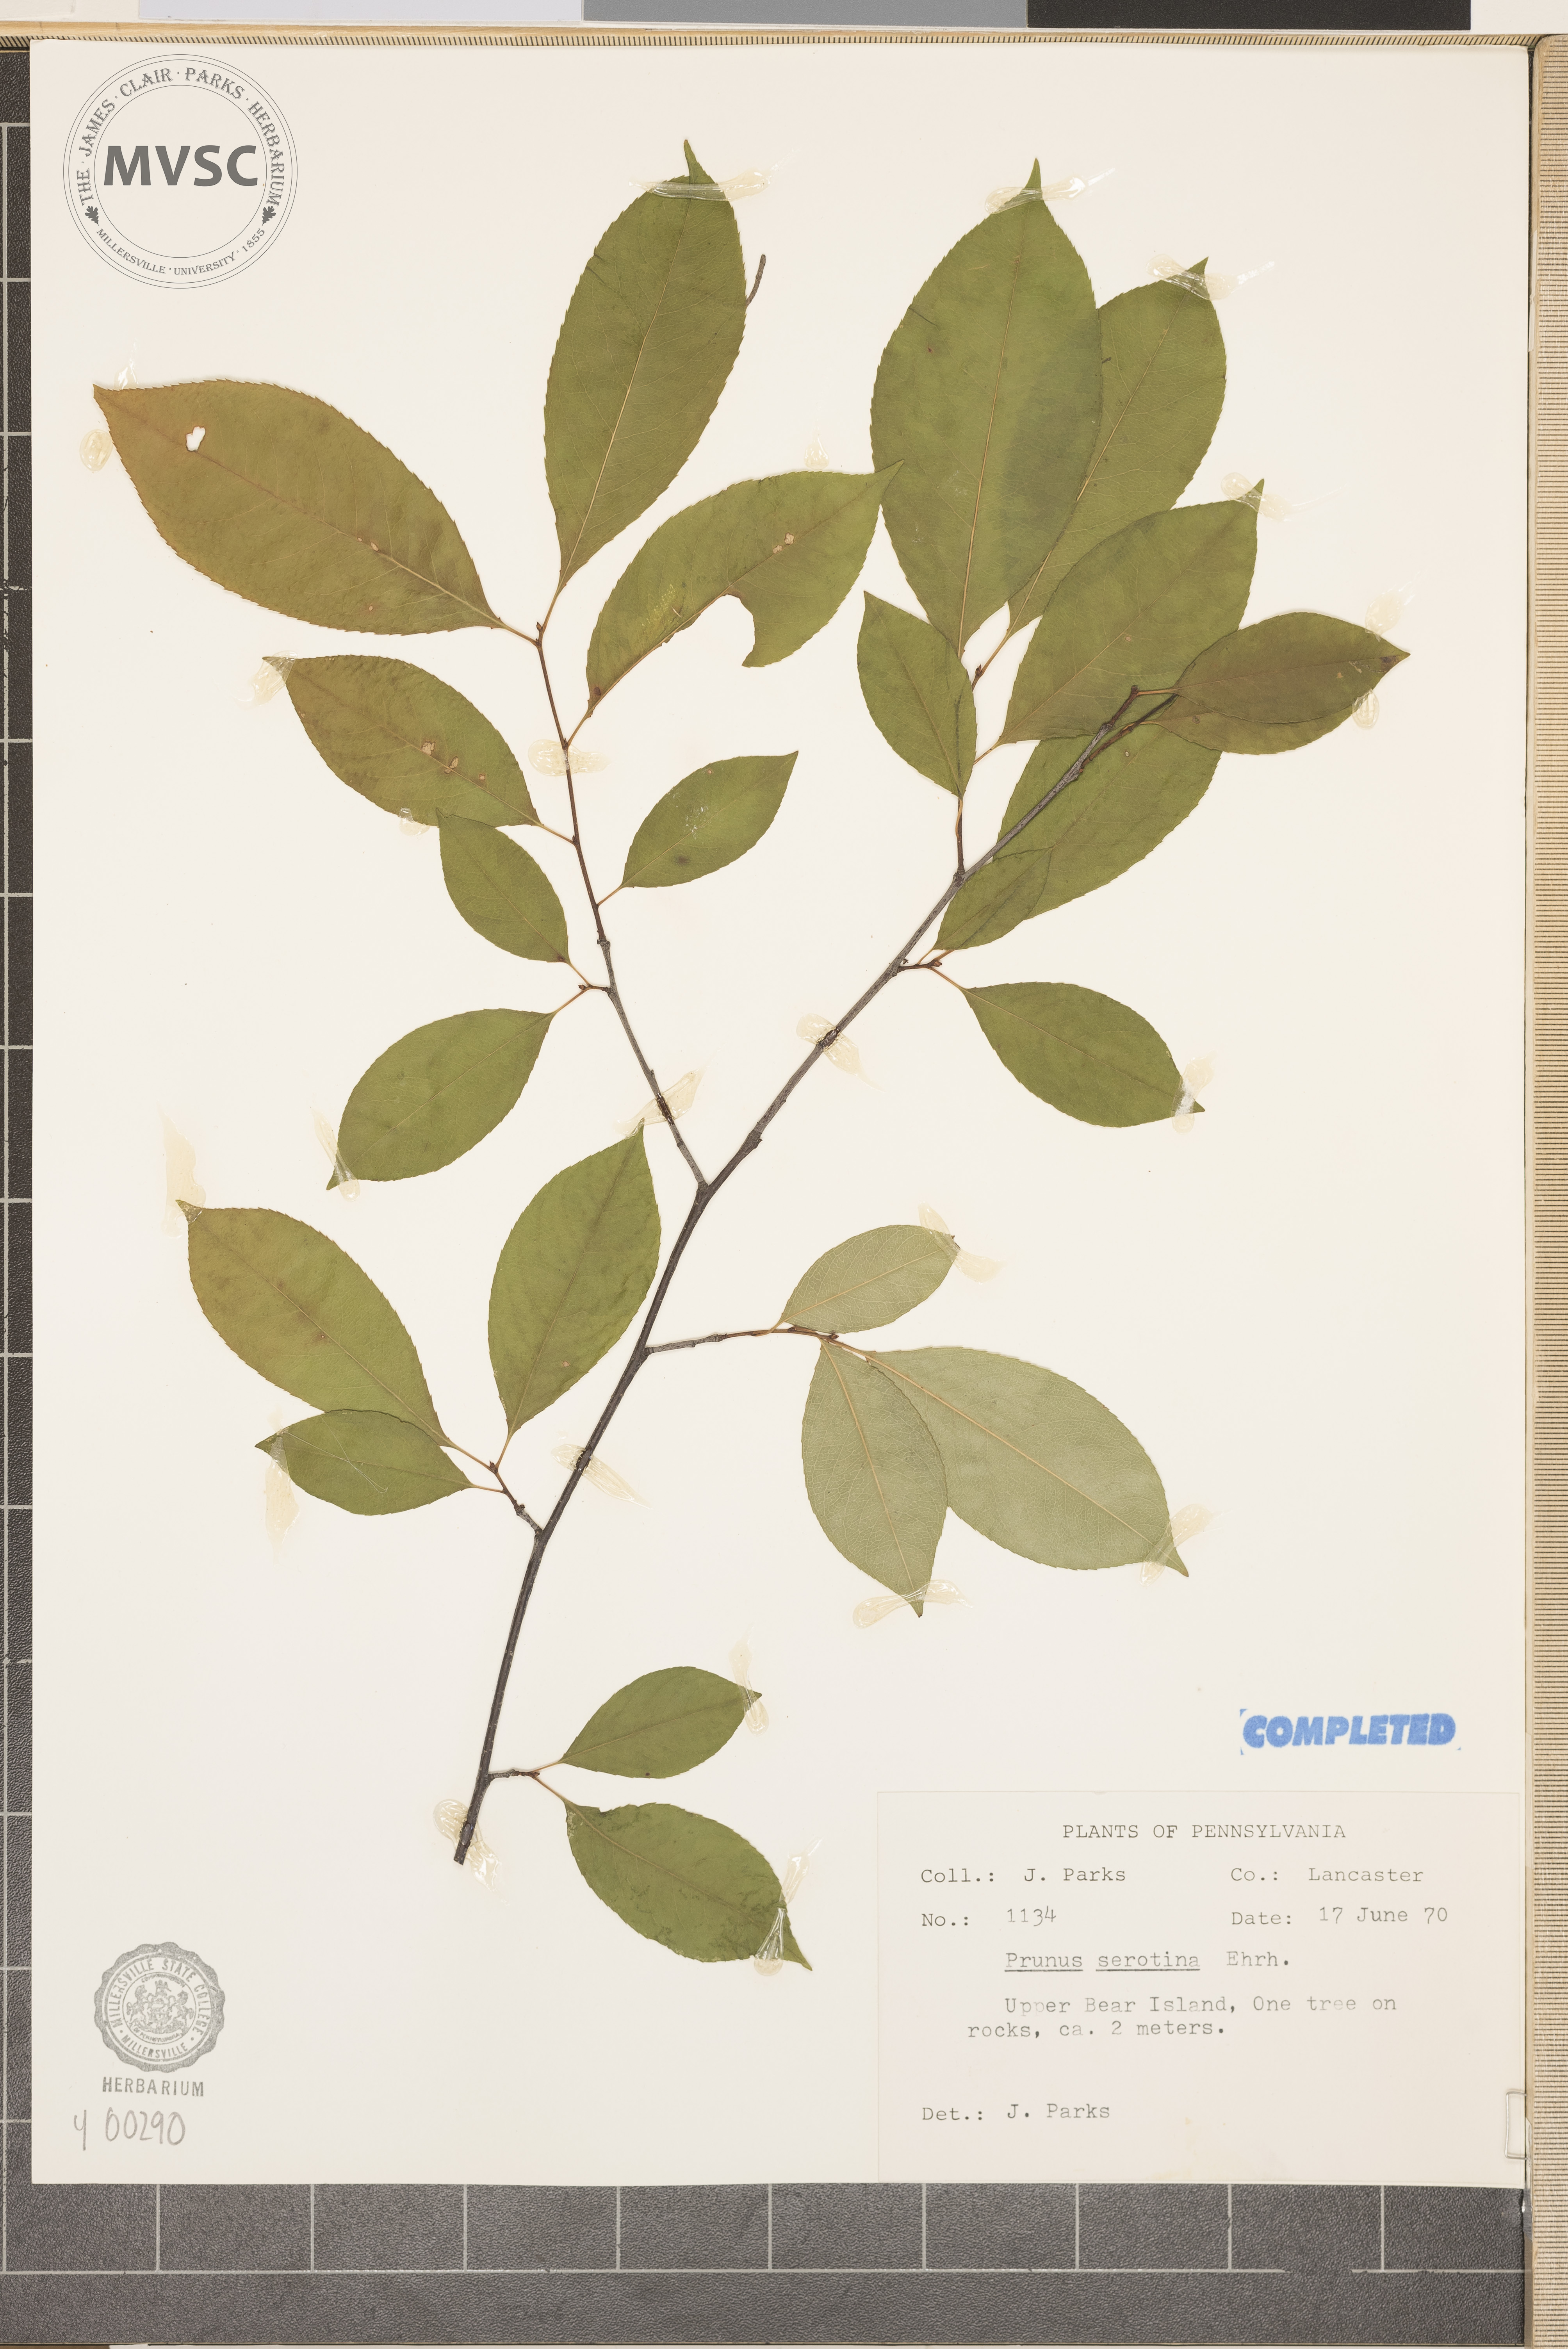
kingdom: Plantae
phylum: Tracheophyta
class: Magnoliopsida
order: Rosales
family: Rosaceae
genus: Prunus
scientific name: Prunus serotina
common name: wild black cherry
